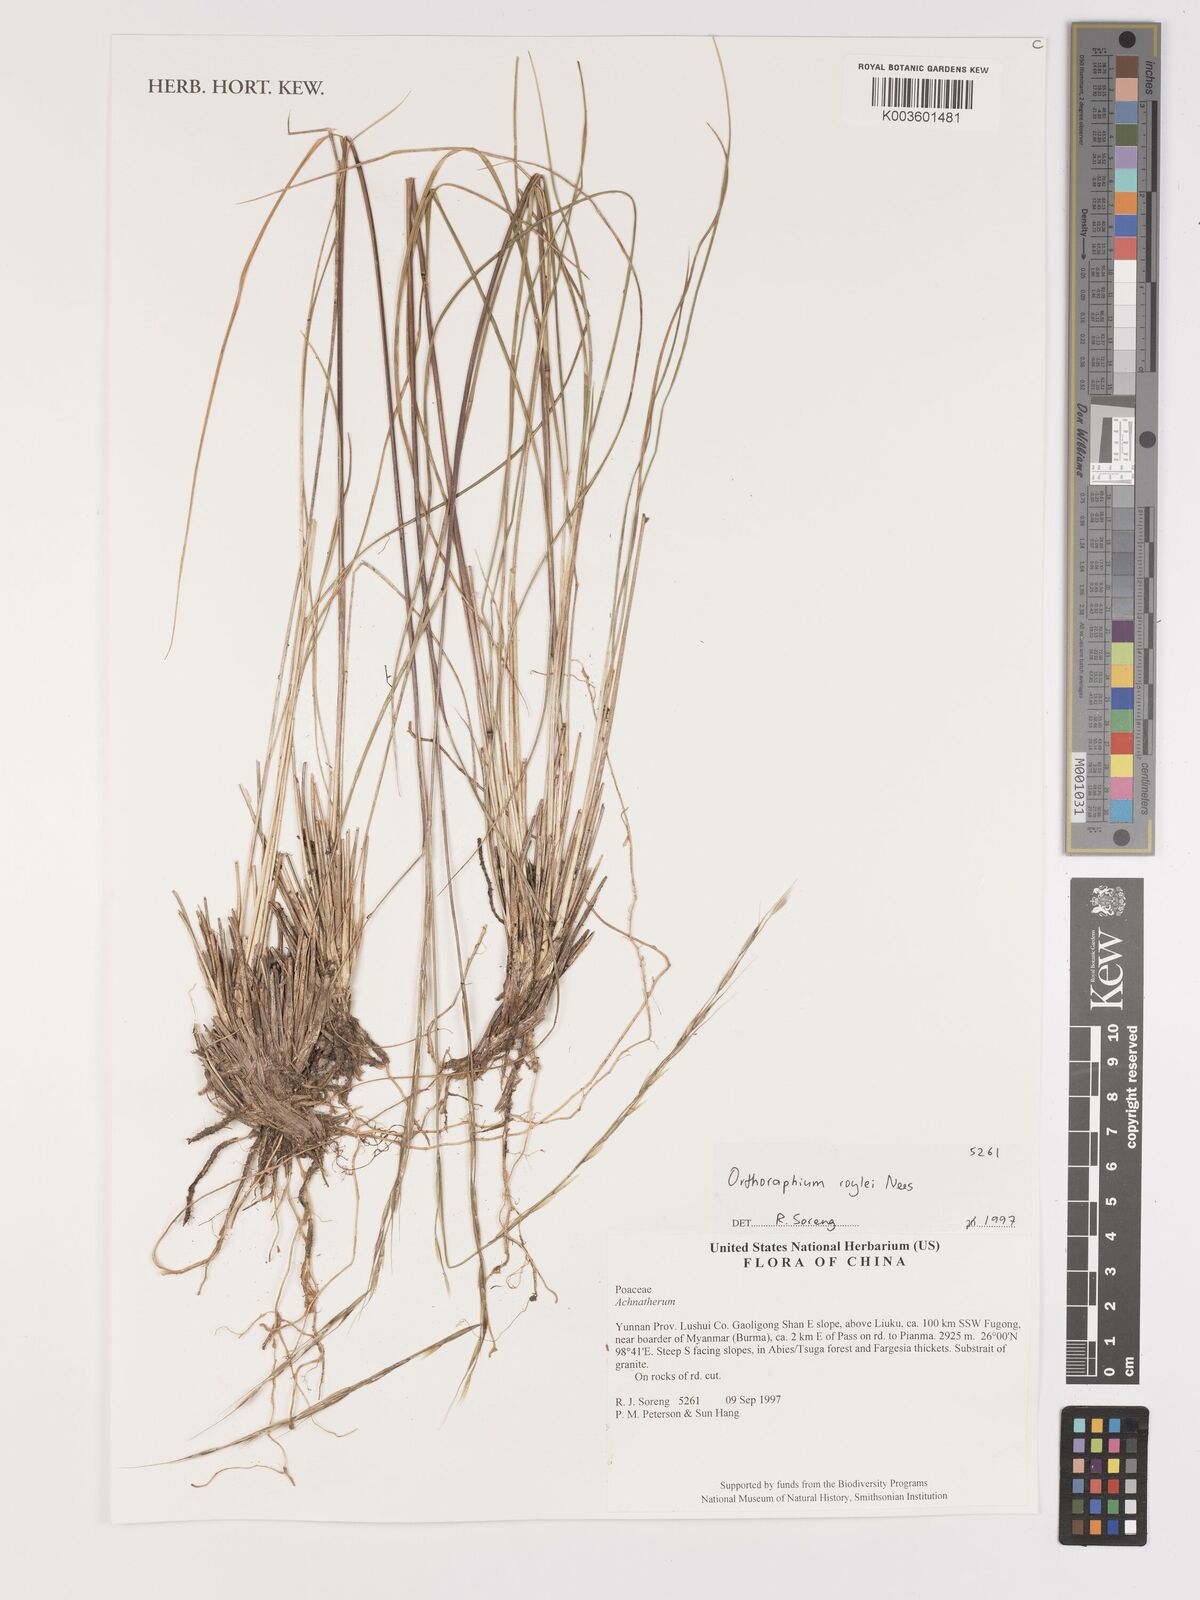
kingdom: Plantae
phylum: Tracheophyta
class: Liliopsida
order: Poales
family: Poaceae
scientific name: Poaceae
